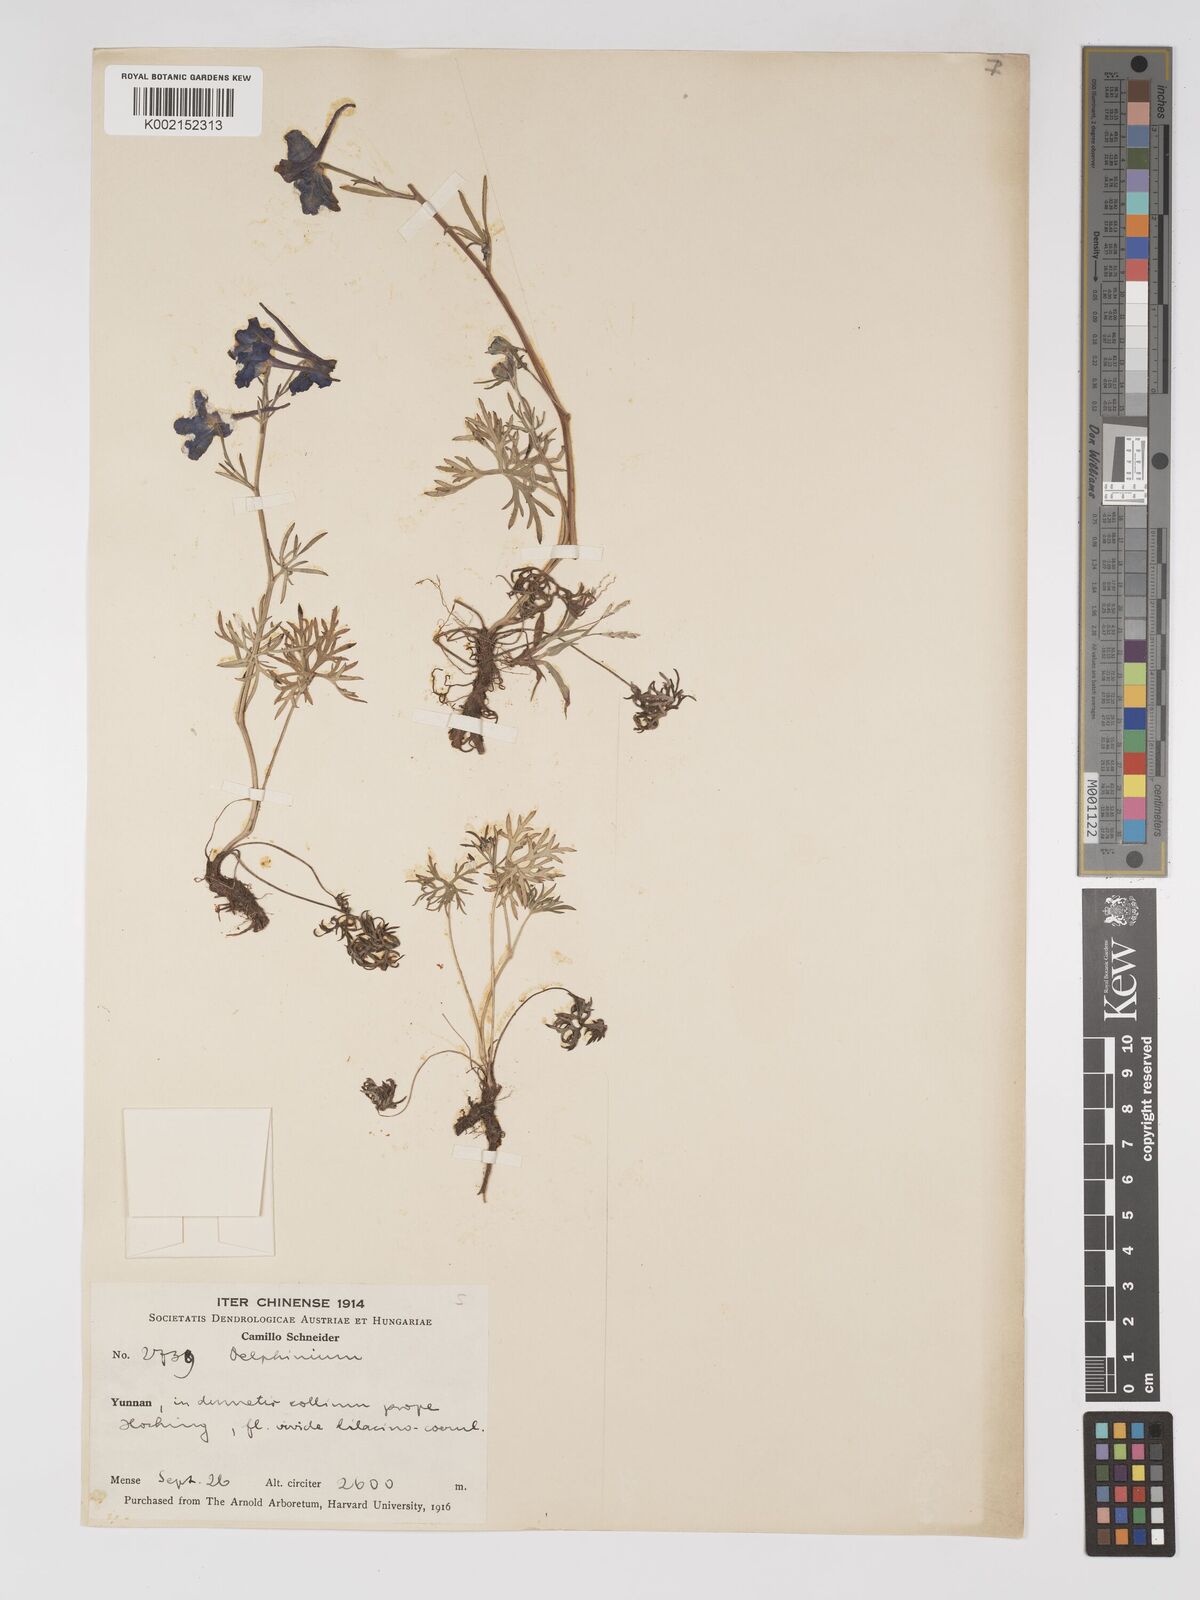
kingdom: Plantae
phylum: Tracheophyta
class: Magnoliopsida
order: Ranunculales
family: Ranunculaceae
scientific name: Ranunculaceae
